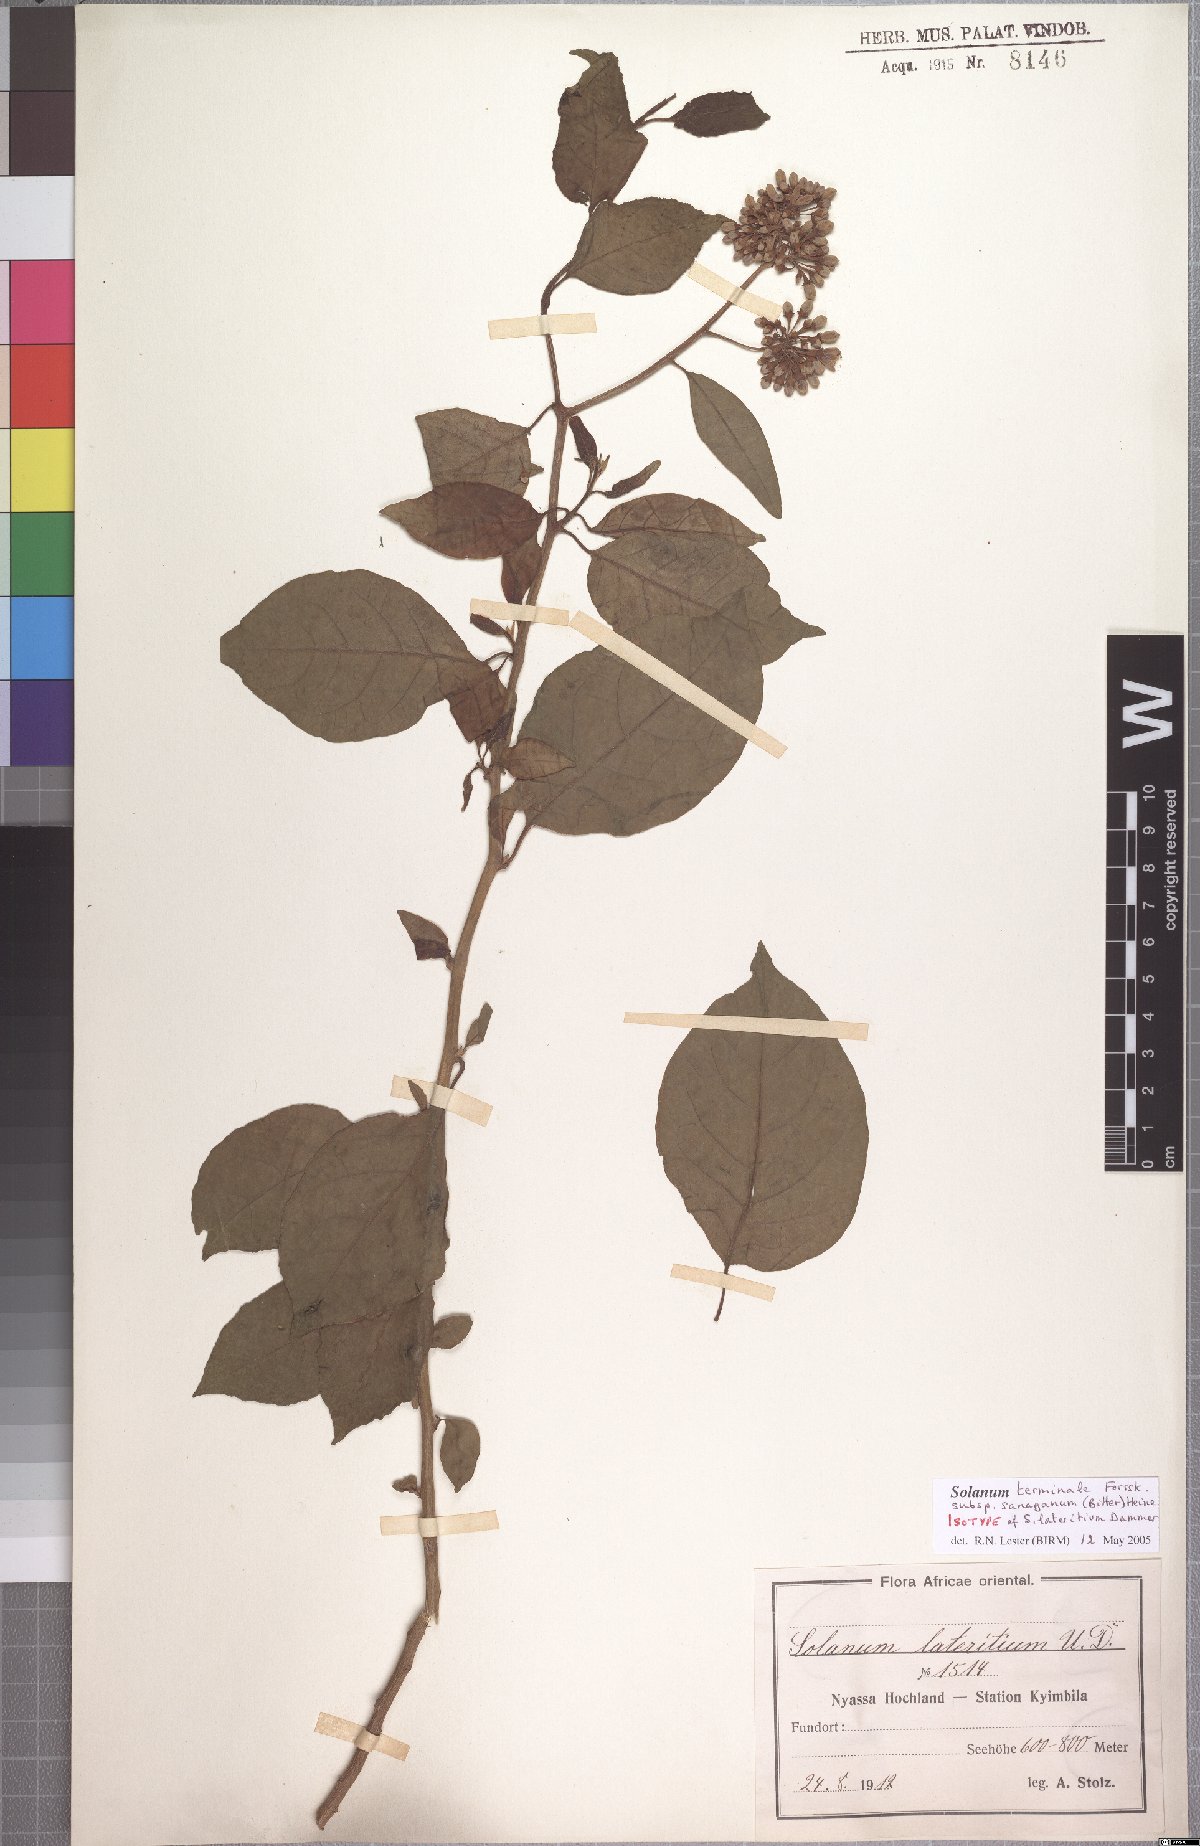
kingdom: Plantae
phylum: Tracheophyta
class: Magnoliopsida
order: Solanales
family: Solanaceae
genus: Solanum
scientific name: Solanum terminale
